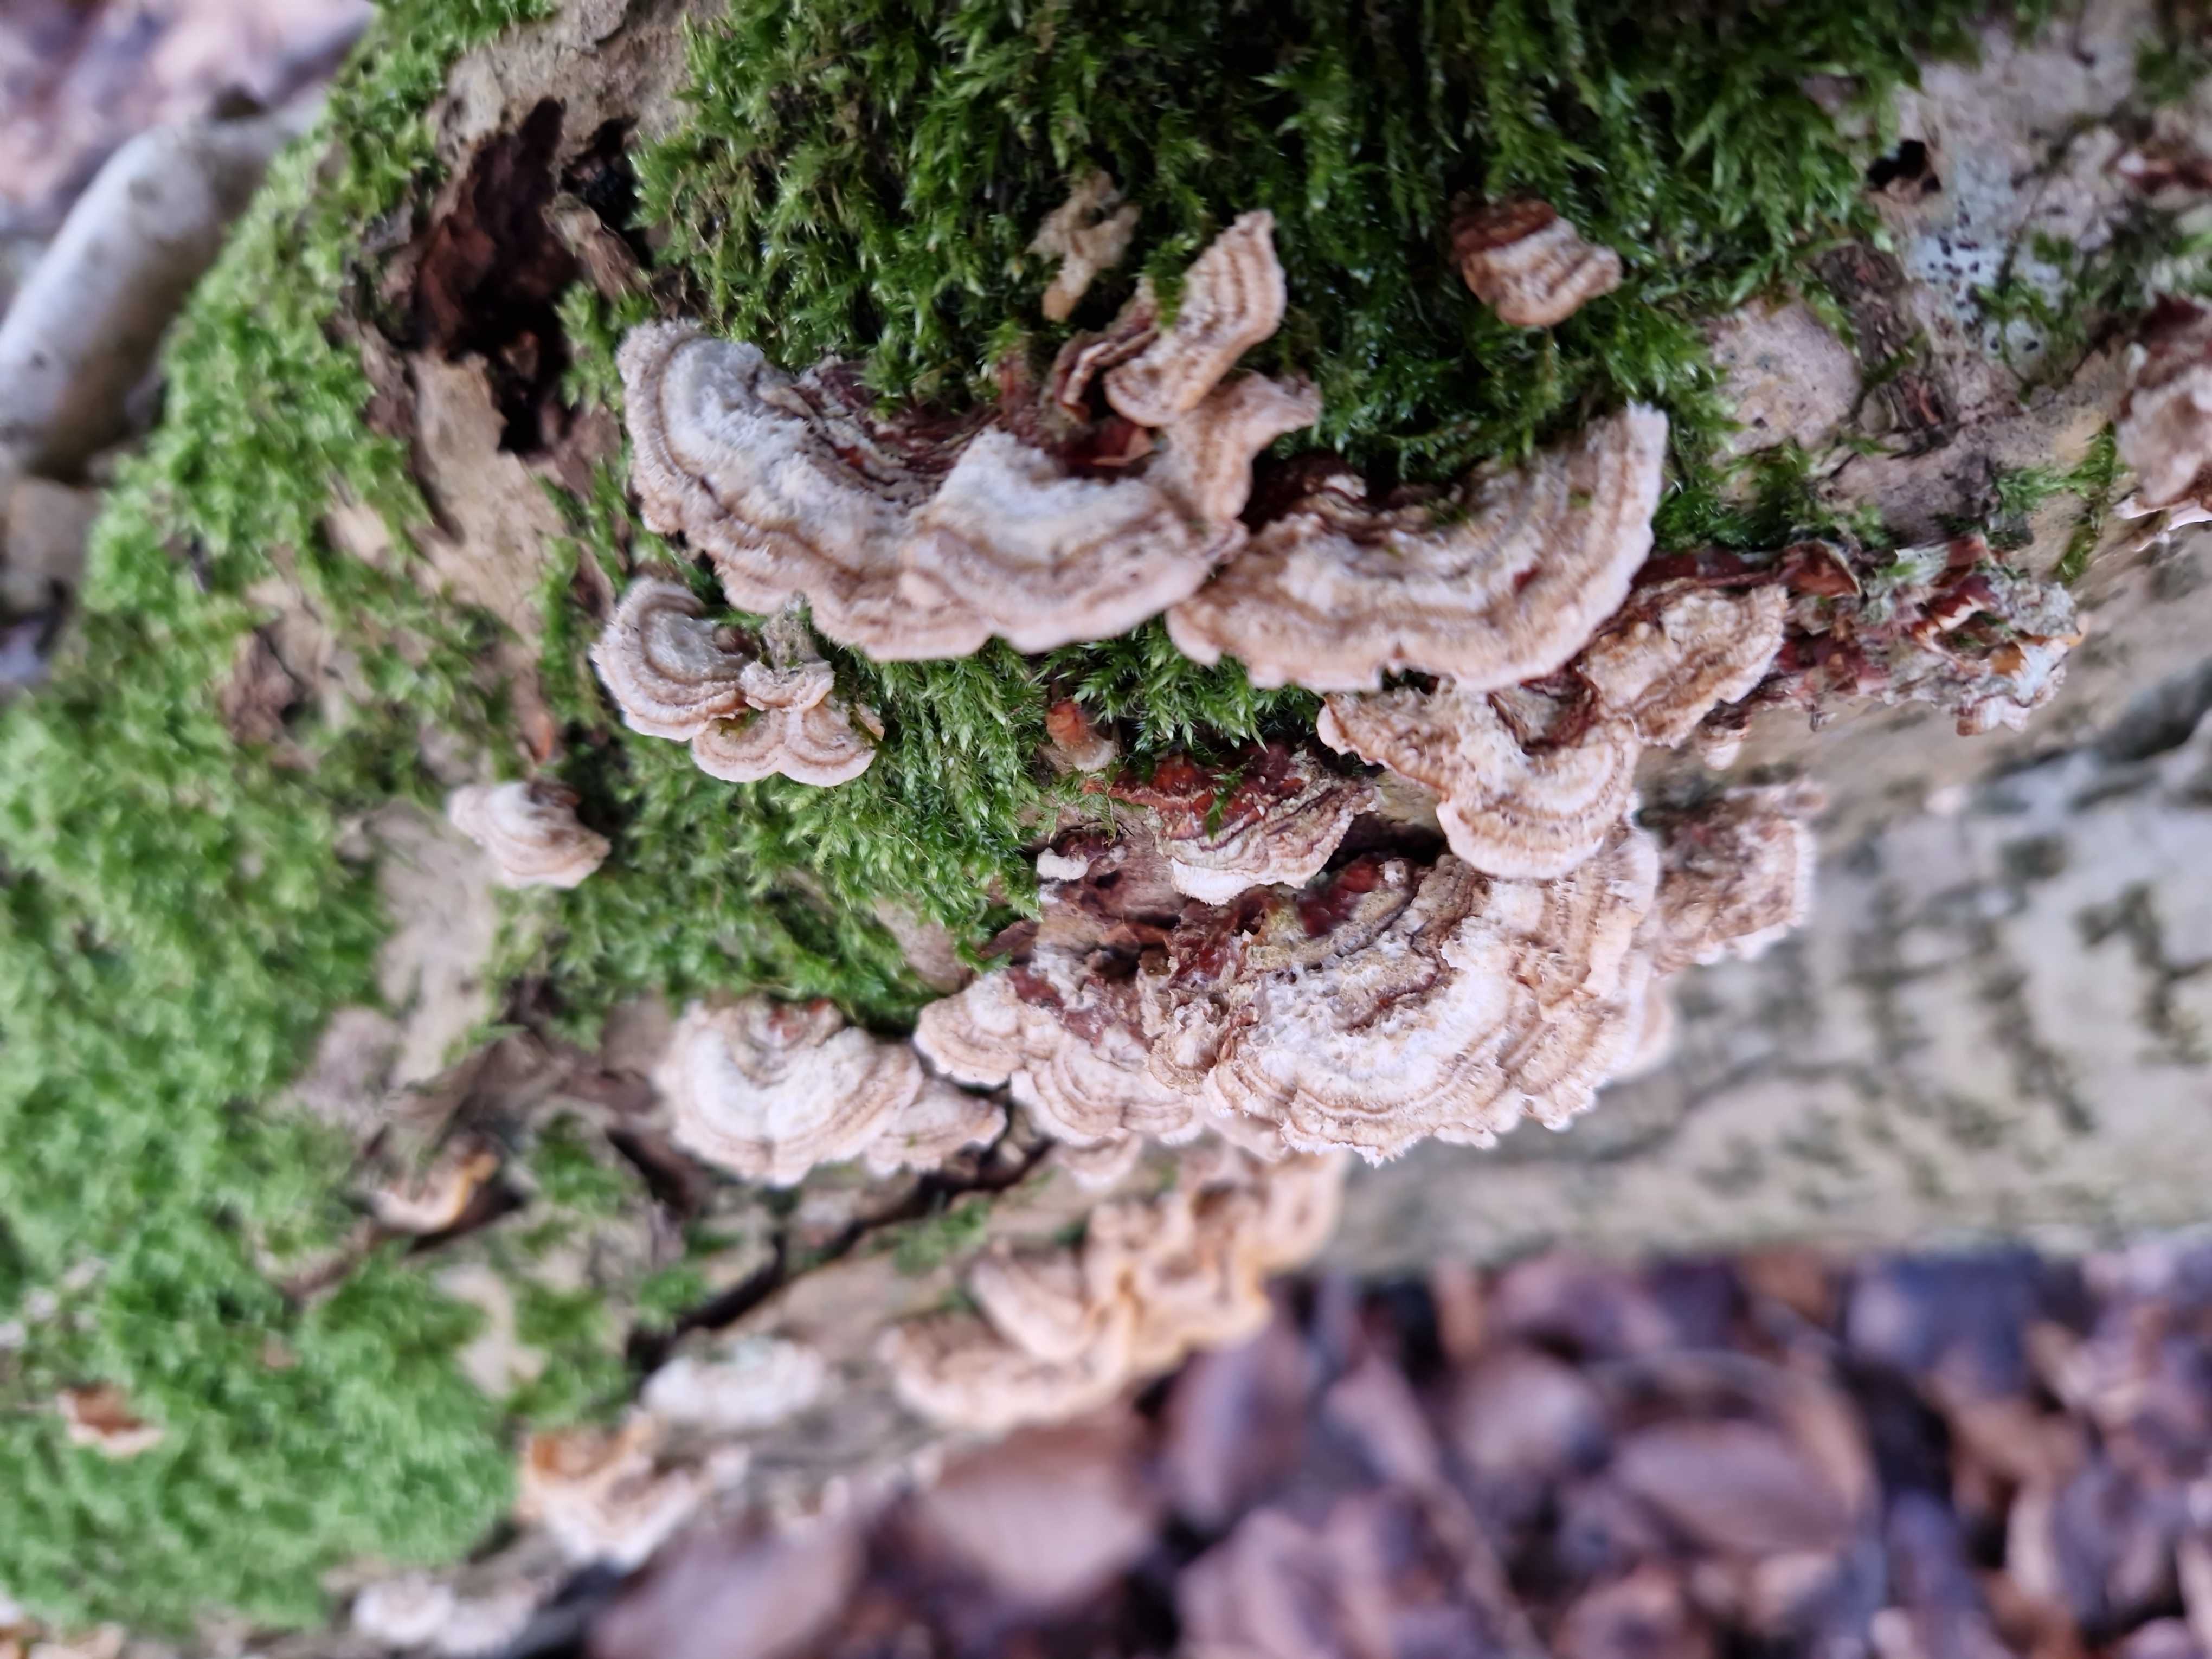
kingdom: Fungi
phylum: Basidiomycota
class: Agaricomycetes
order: Russulales
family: Stereaceae
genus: Stereum
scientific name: Stereum hirsutum
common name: håret lædersvamp
